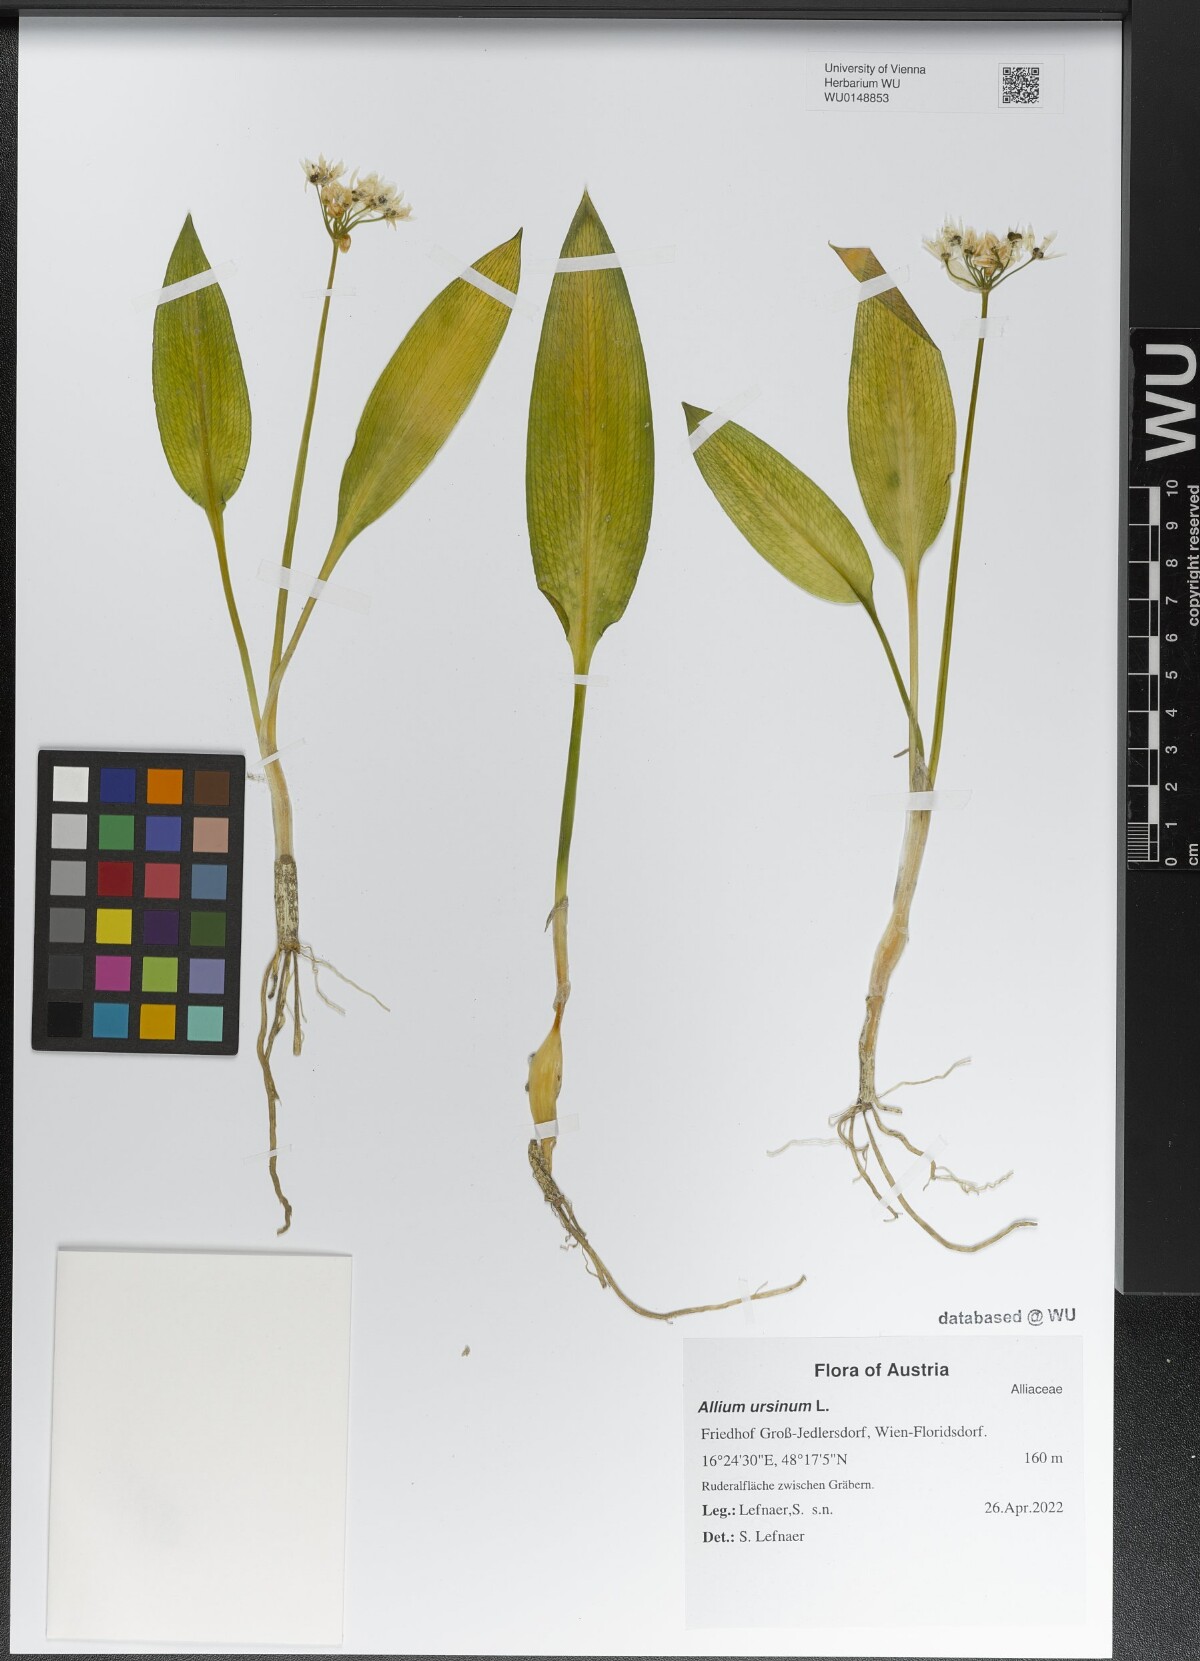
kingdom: Plantae
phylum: Tracheophyta
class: Liliopsida
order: Asparagales
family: Amaryllidaceae
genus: Allium
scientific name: Allium ursinum
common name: Ramsons
